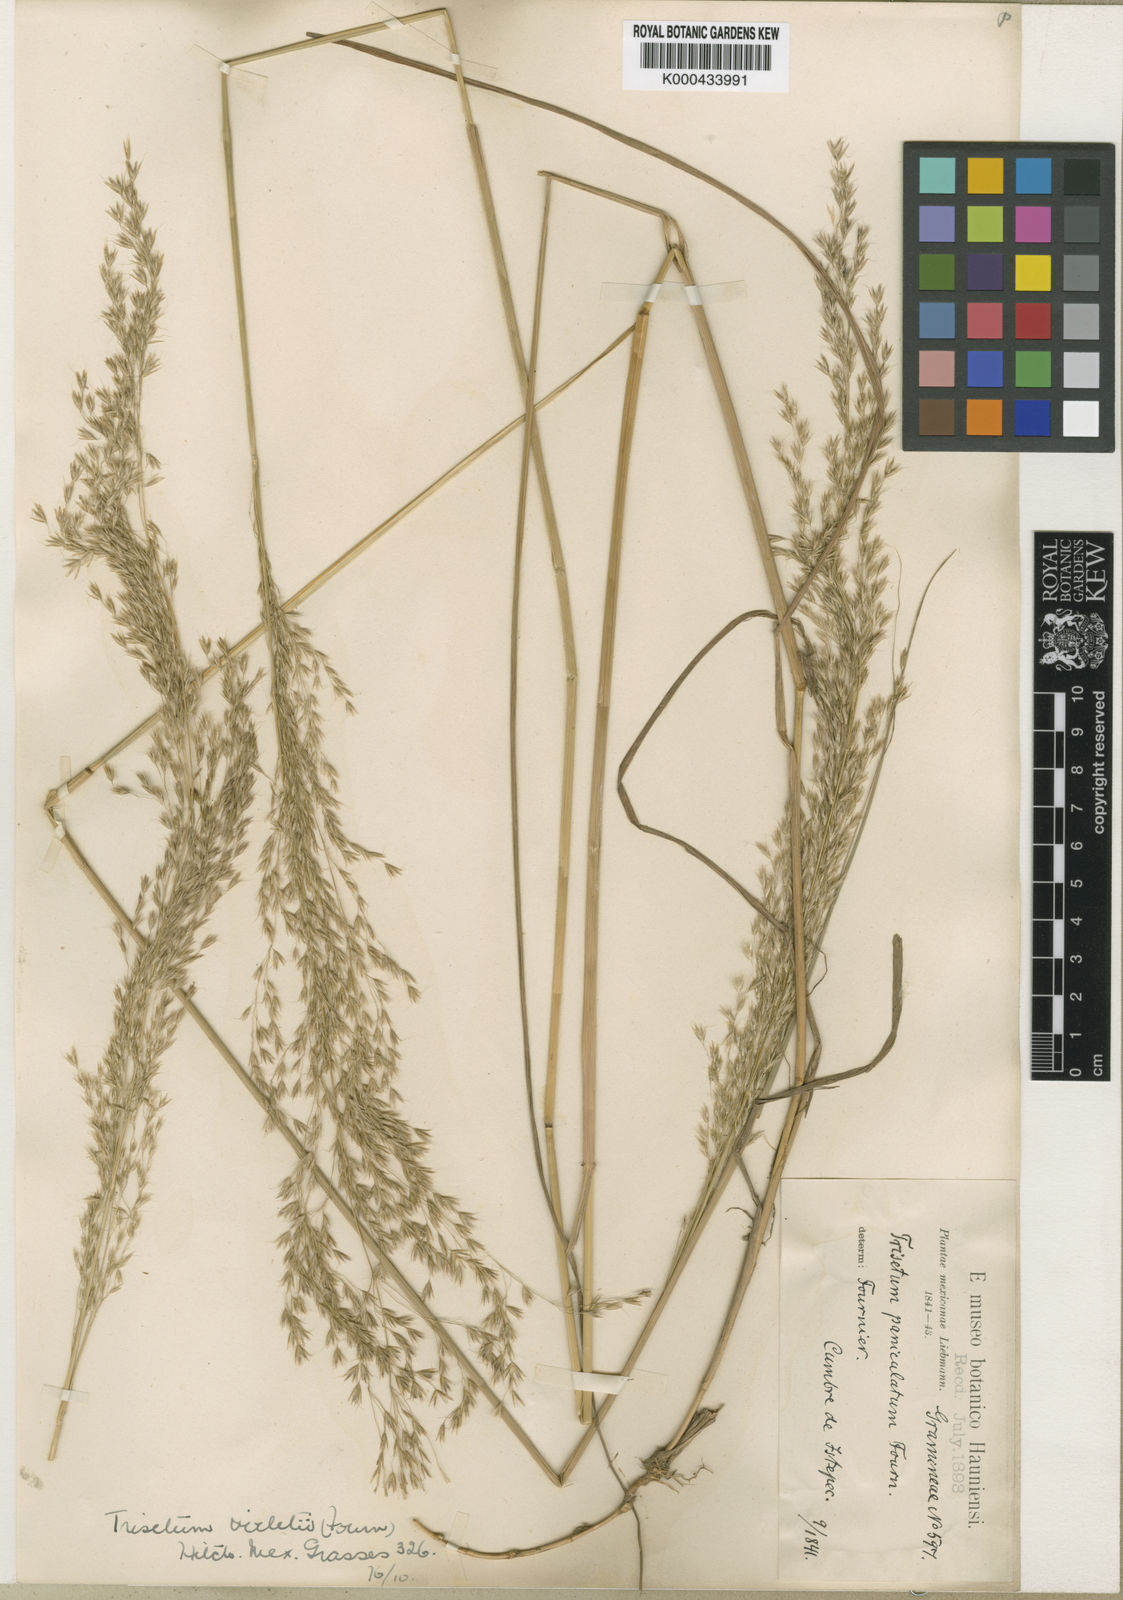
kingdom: Plantae
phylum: Tracheophyta
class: Liliopsida
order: Poales
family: Poaceae
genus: Peyritschia
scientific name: Peyritschia viridis
